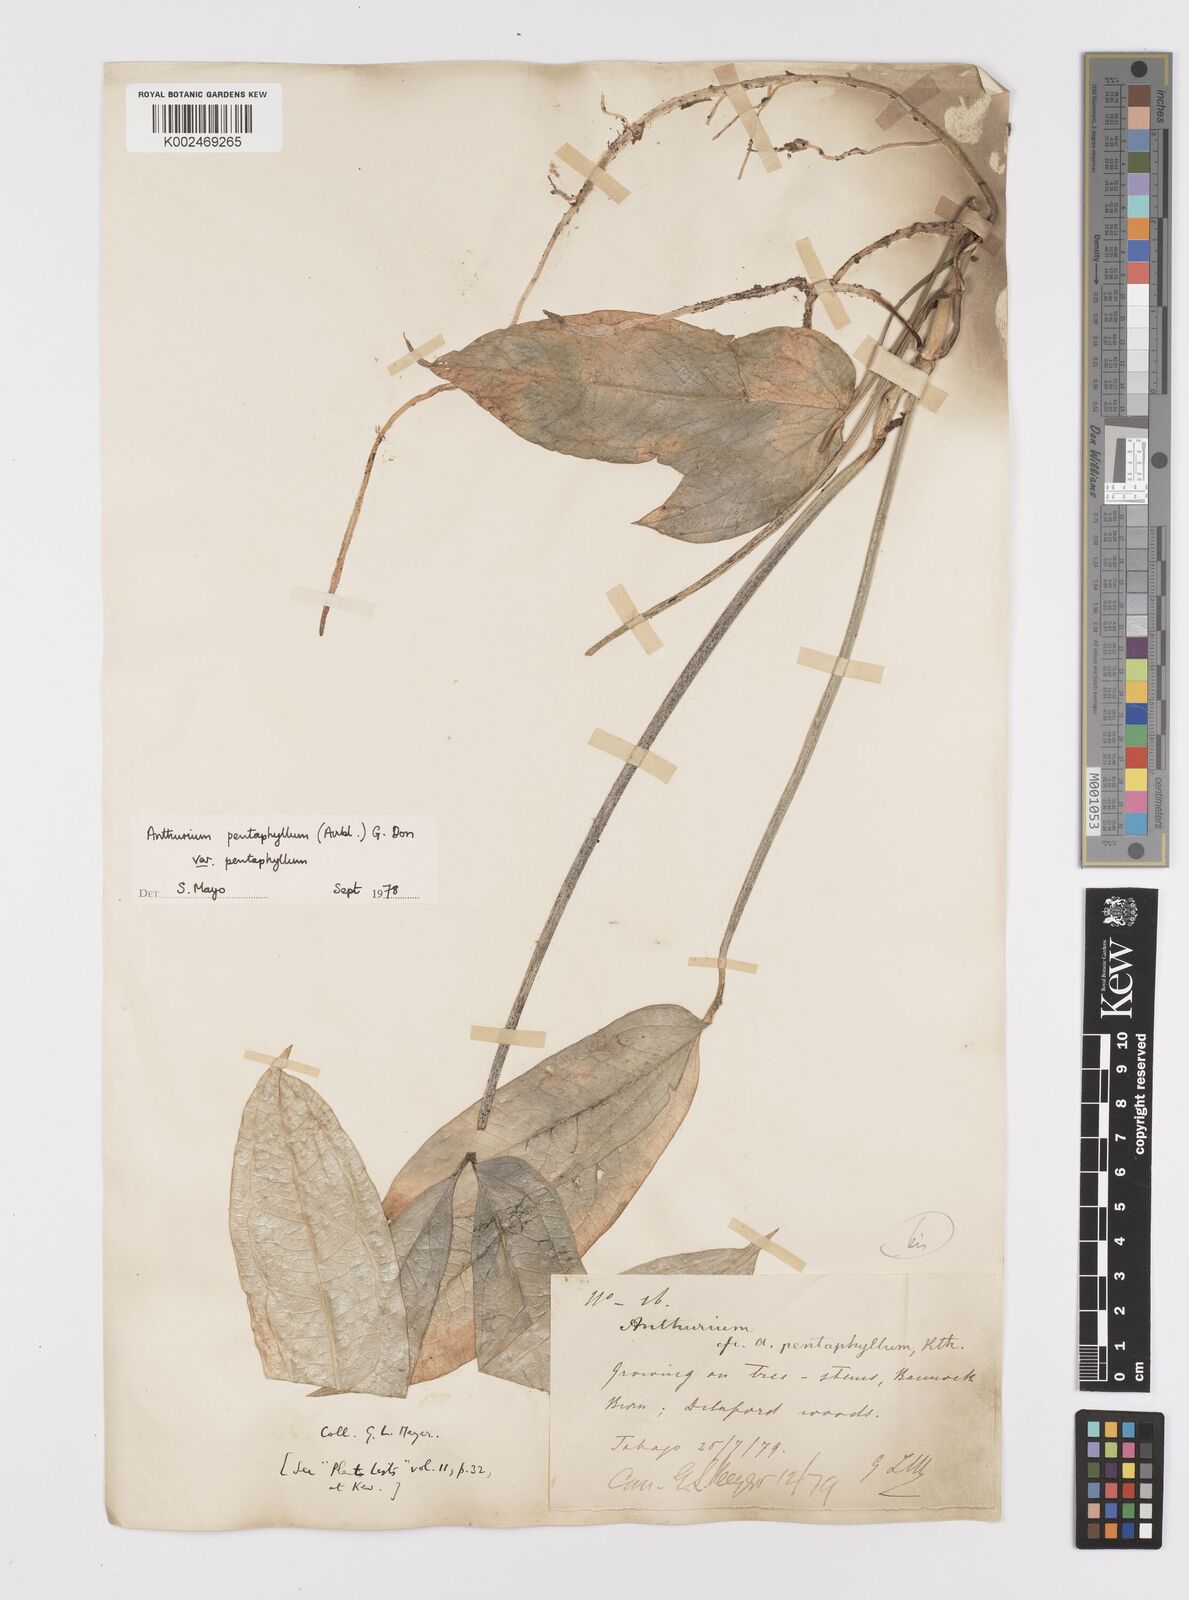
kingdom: Plantae
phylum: Tracheophyta
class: Liliopsida
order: Alismatales
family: Araceae
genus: Anthurium
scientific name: Anthurium pentaphyllum
